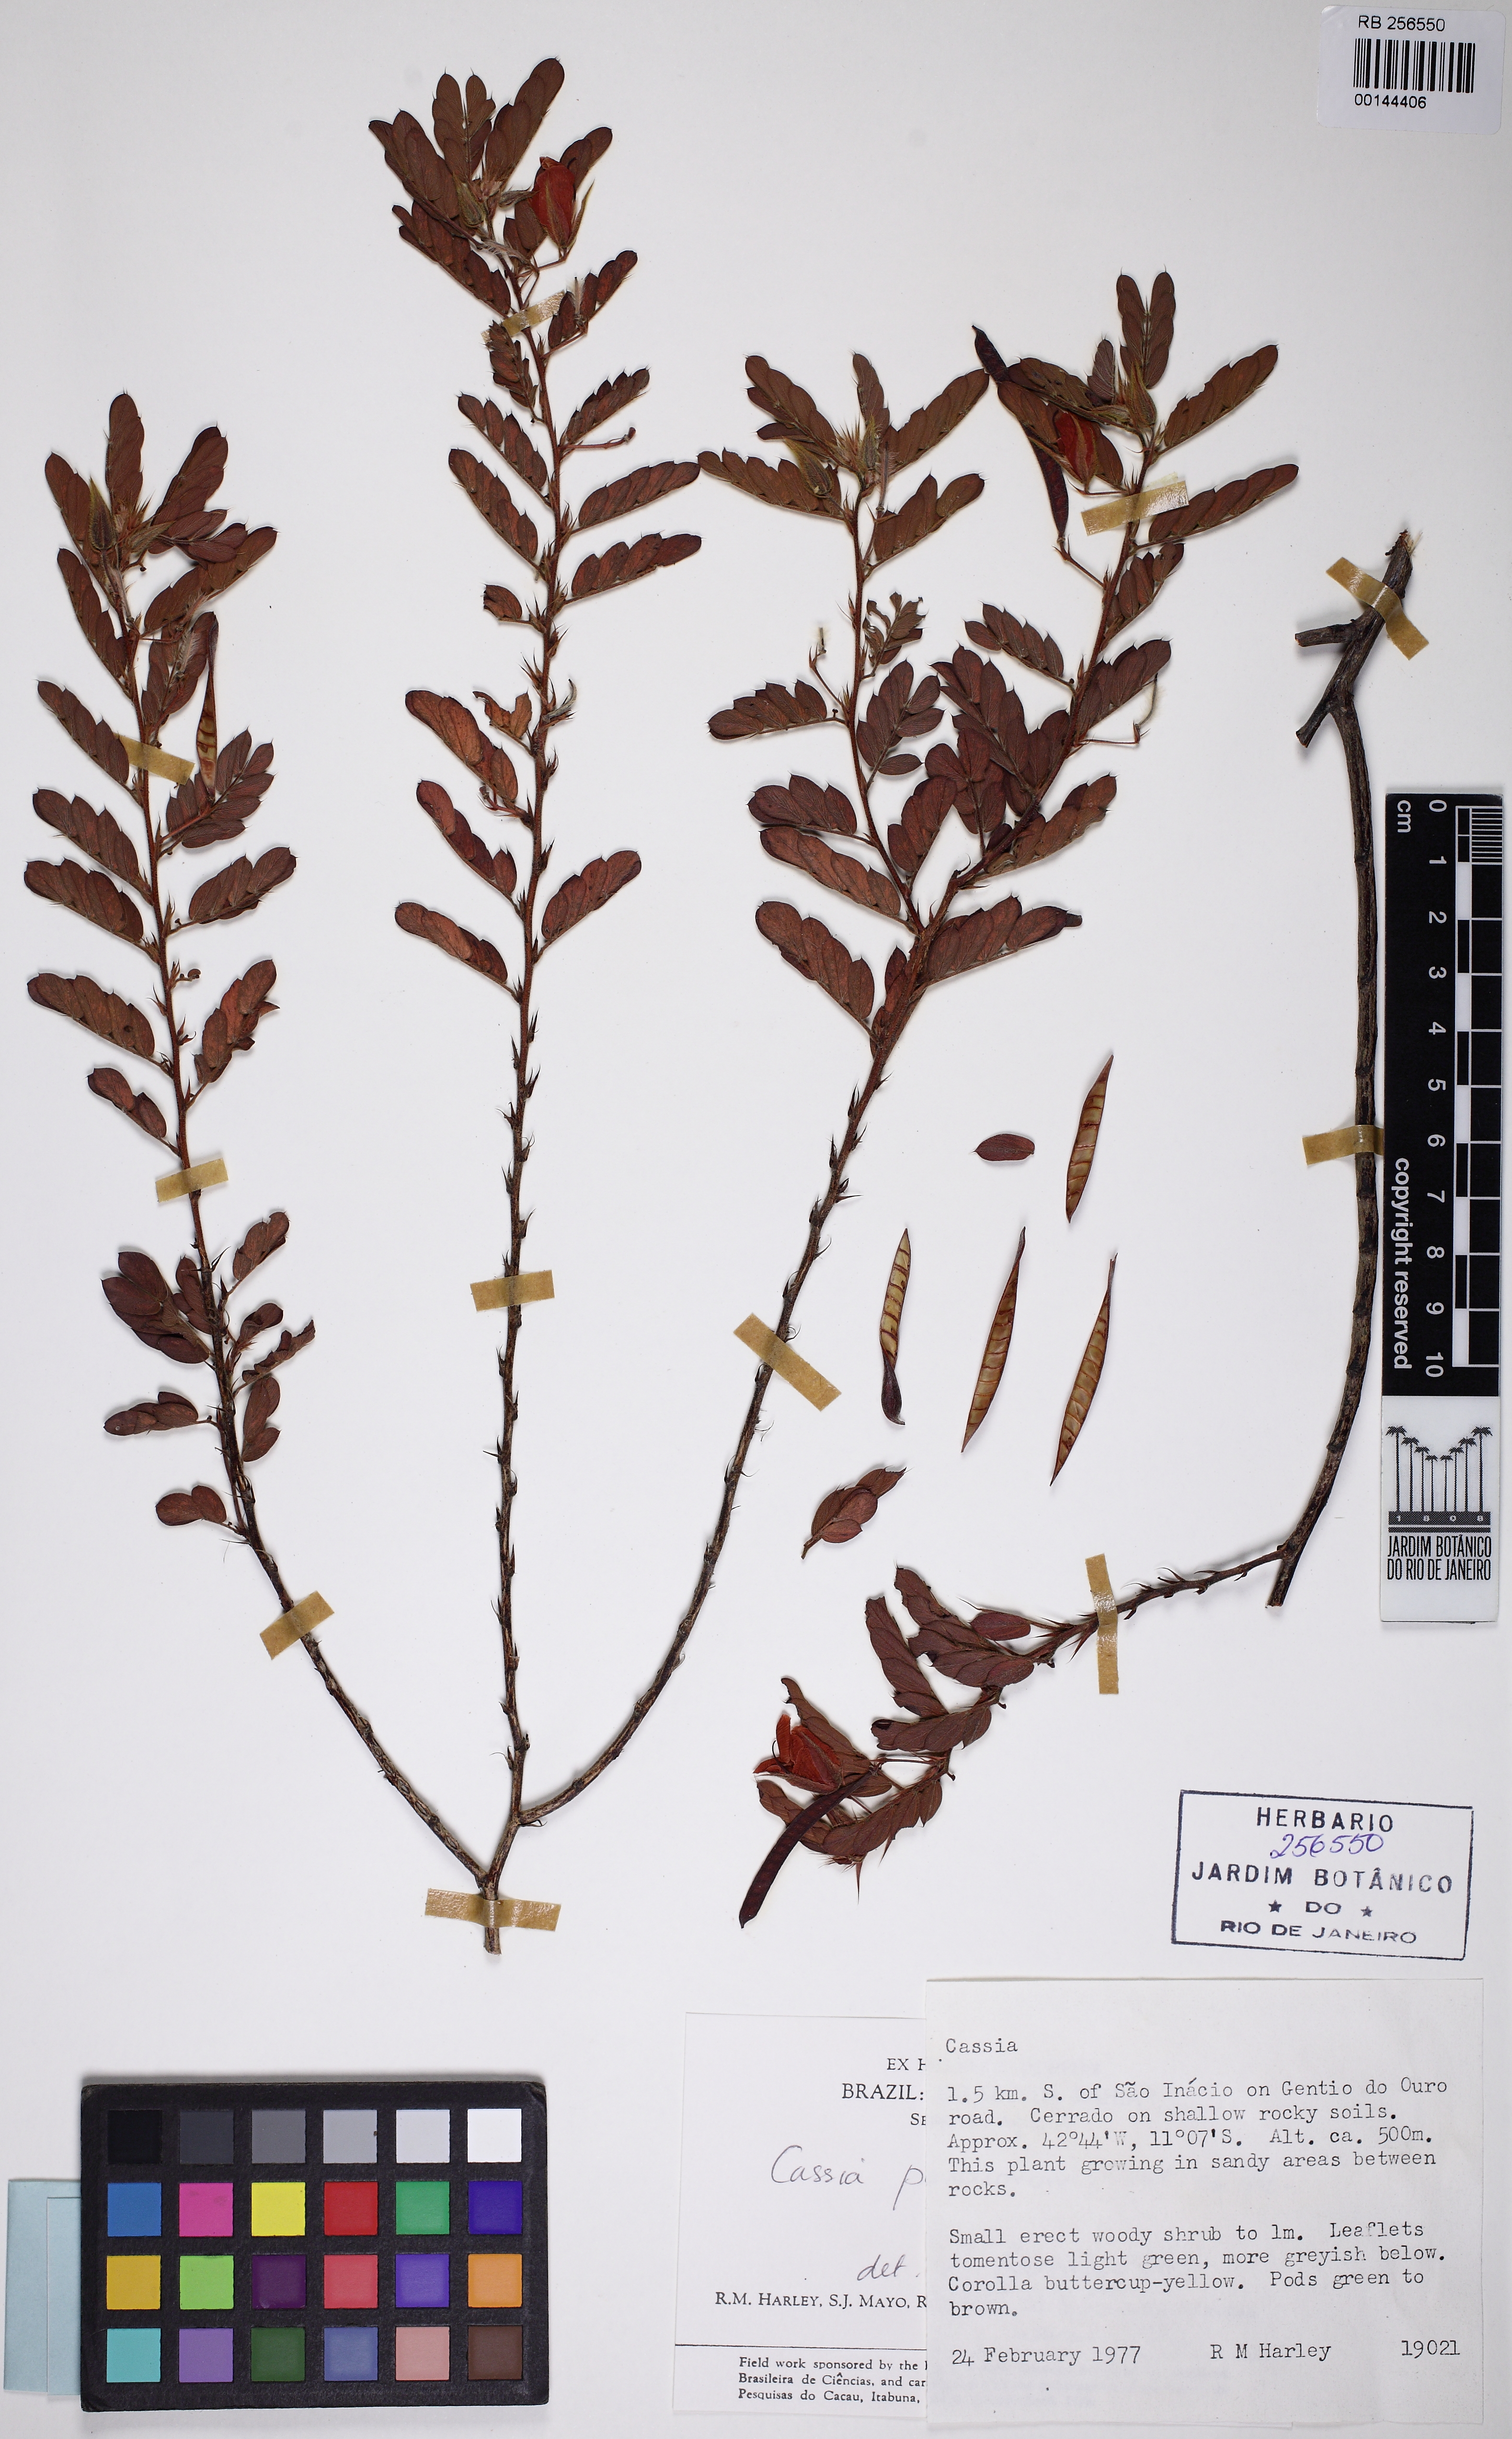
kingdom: Plantae
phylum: Tracheophyta
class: Magnoliopsida
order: Fabales
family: Fabaceae
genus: Chamaecrista
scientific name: Chamaecrista pascuorum
